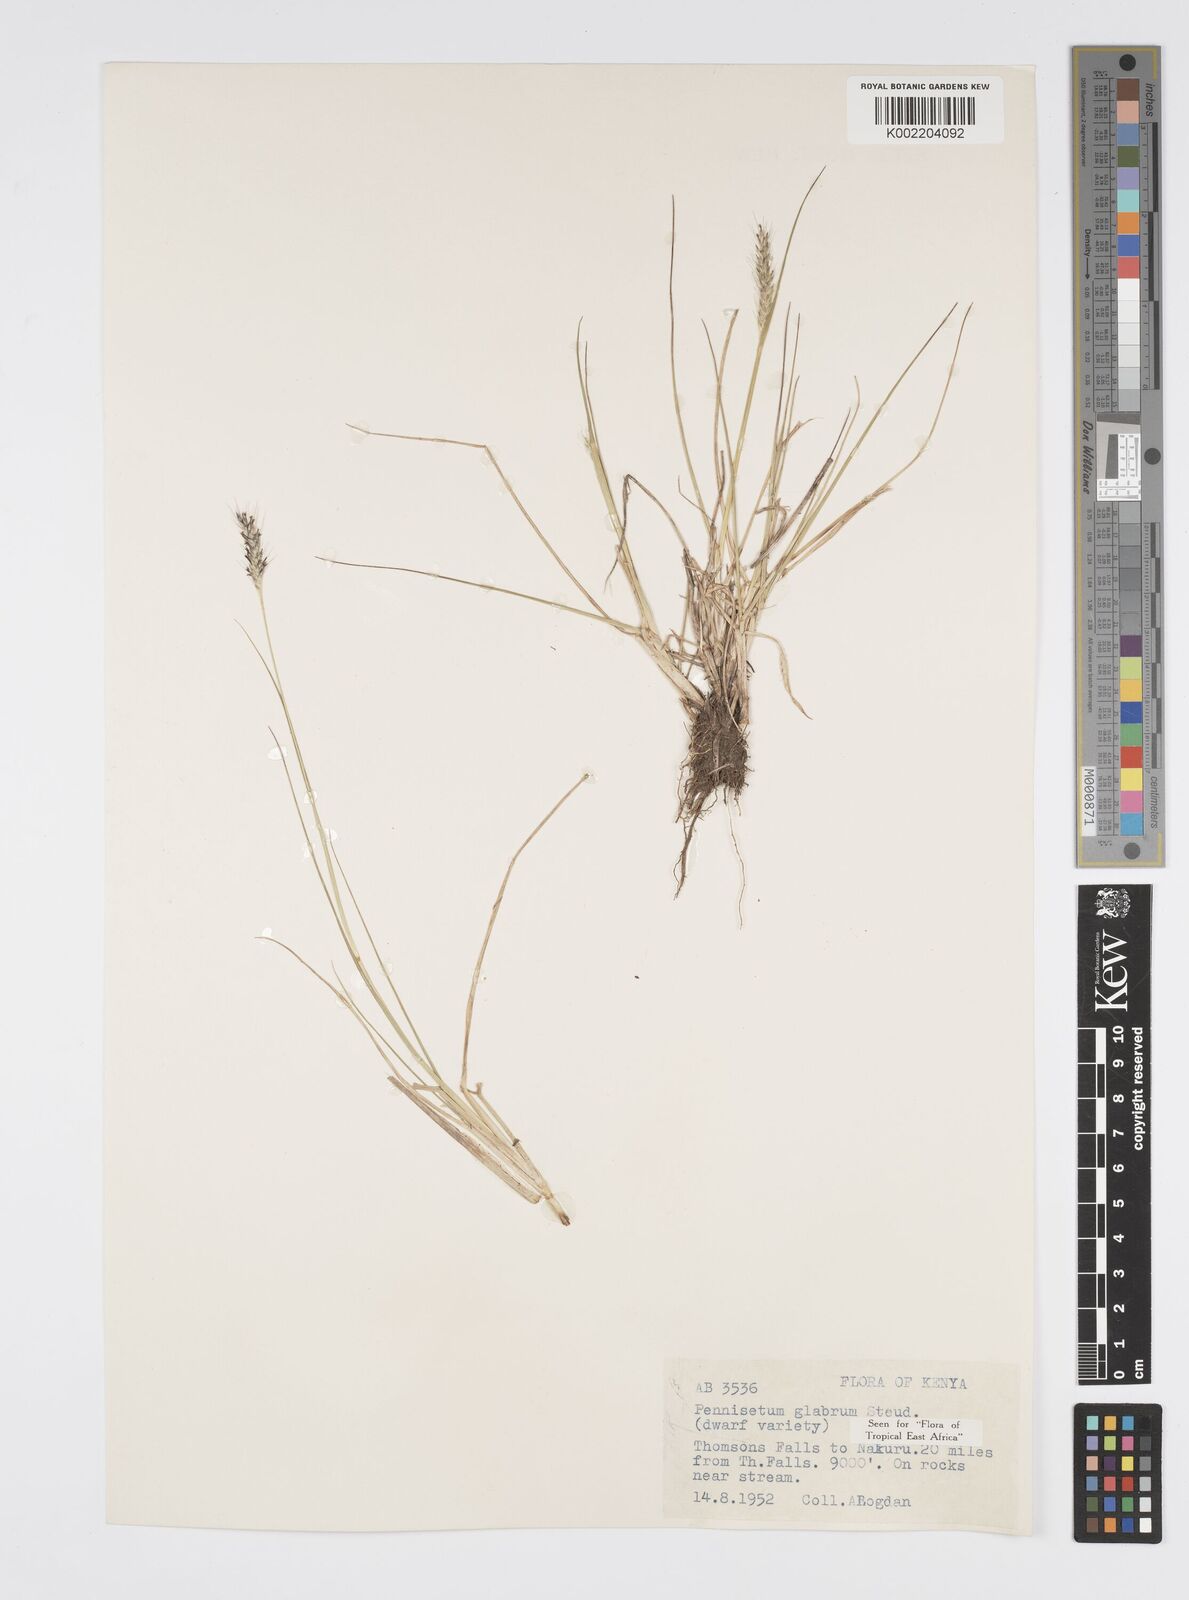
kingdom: Plantae
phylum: Tracheophyta
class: Liliopsida
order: Poales
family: Poaceae
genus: Cenchrus
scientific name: Cenchrus geniculatus
